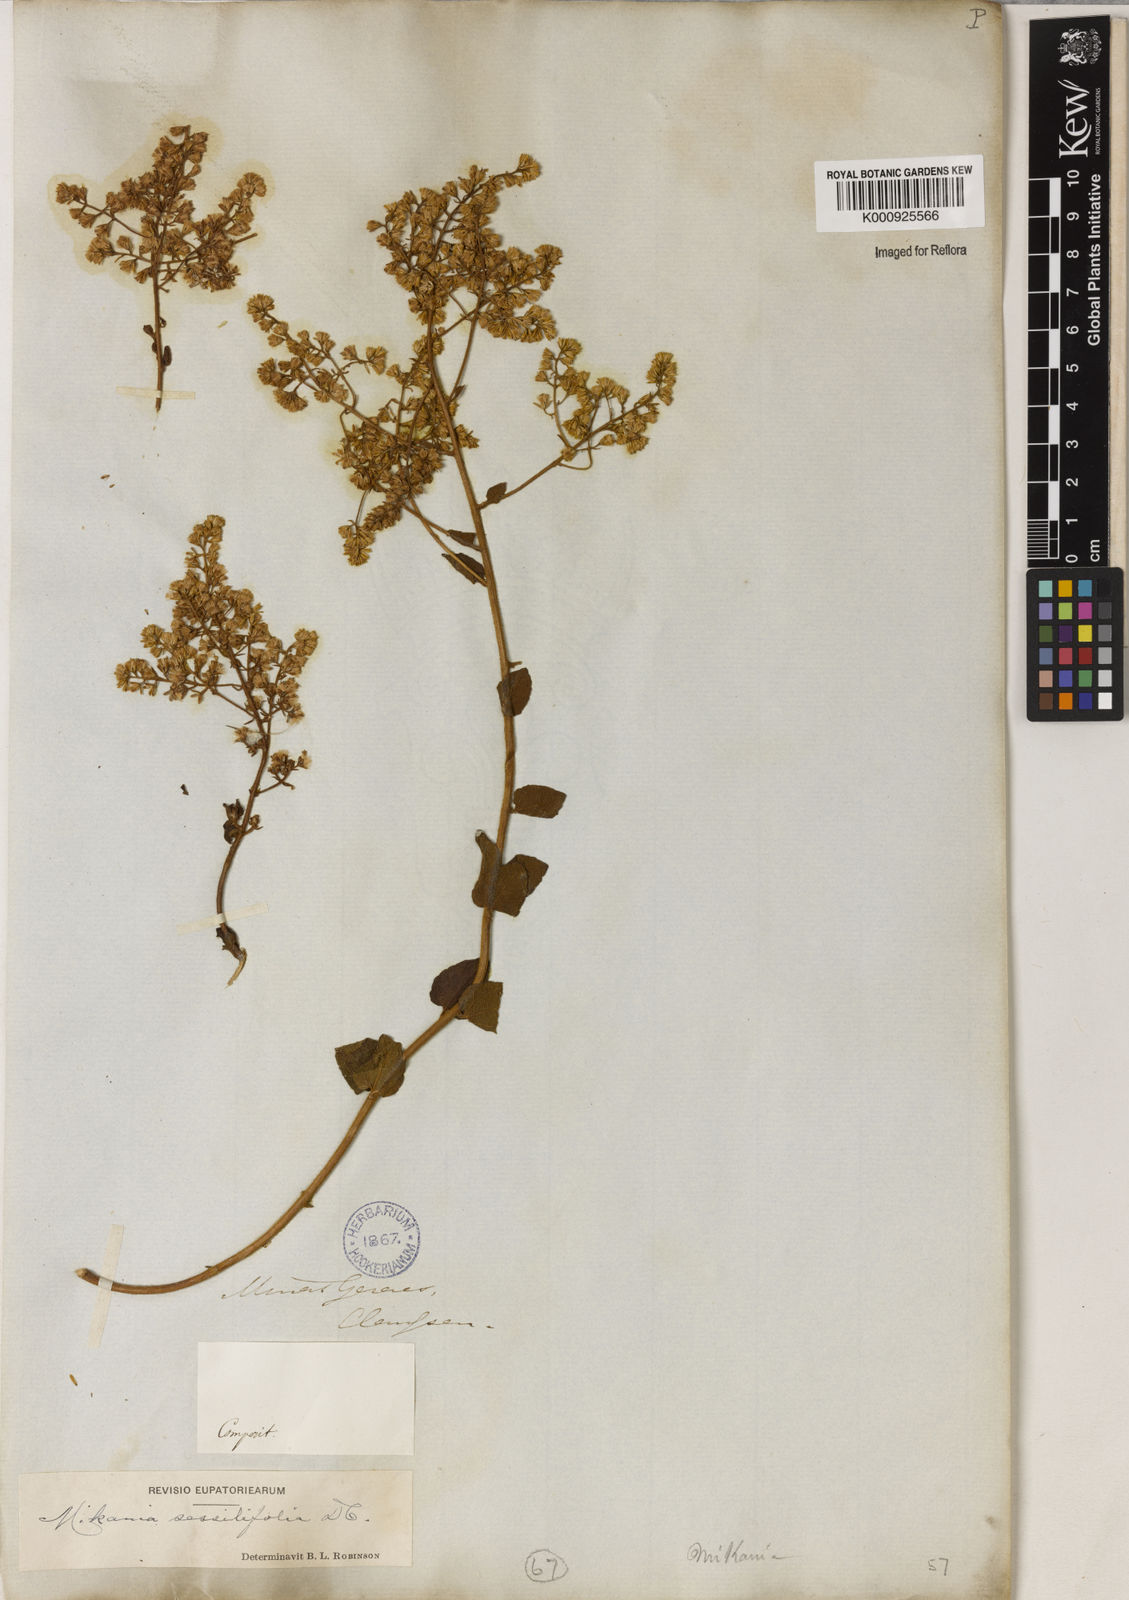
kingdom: Plantae
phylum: Tracheophyta
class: Magnoliopsida
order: Asterales
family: Asteraceae
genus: Mikania
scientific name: Mikania sessilifolia
